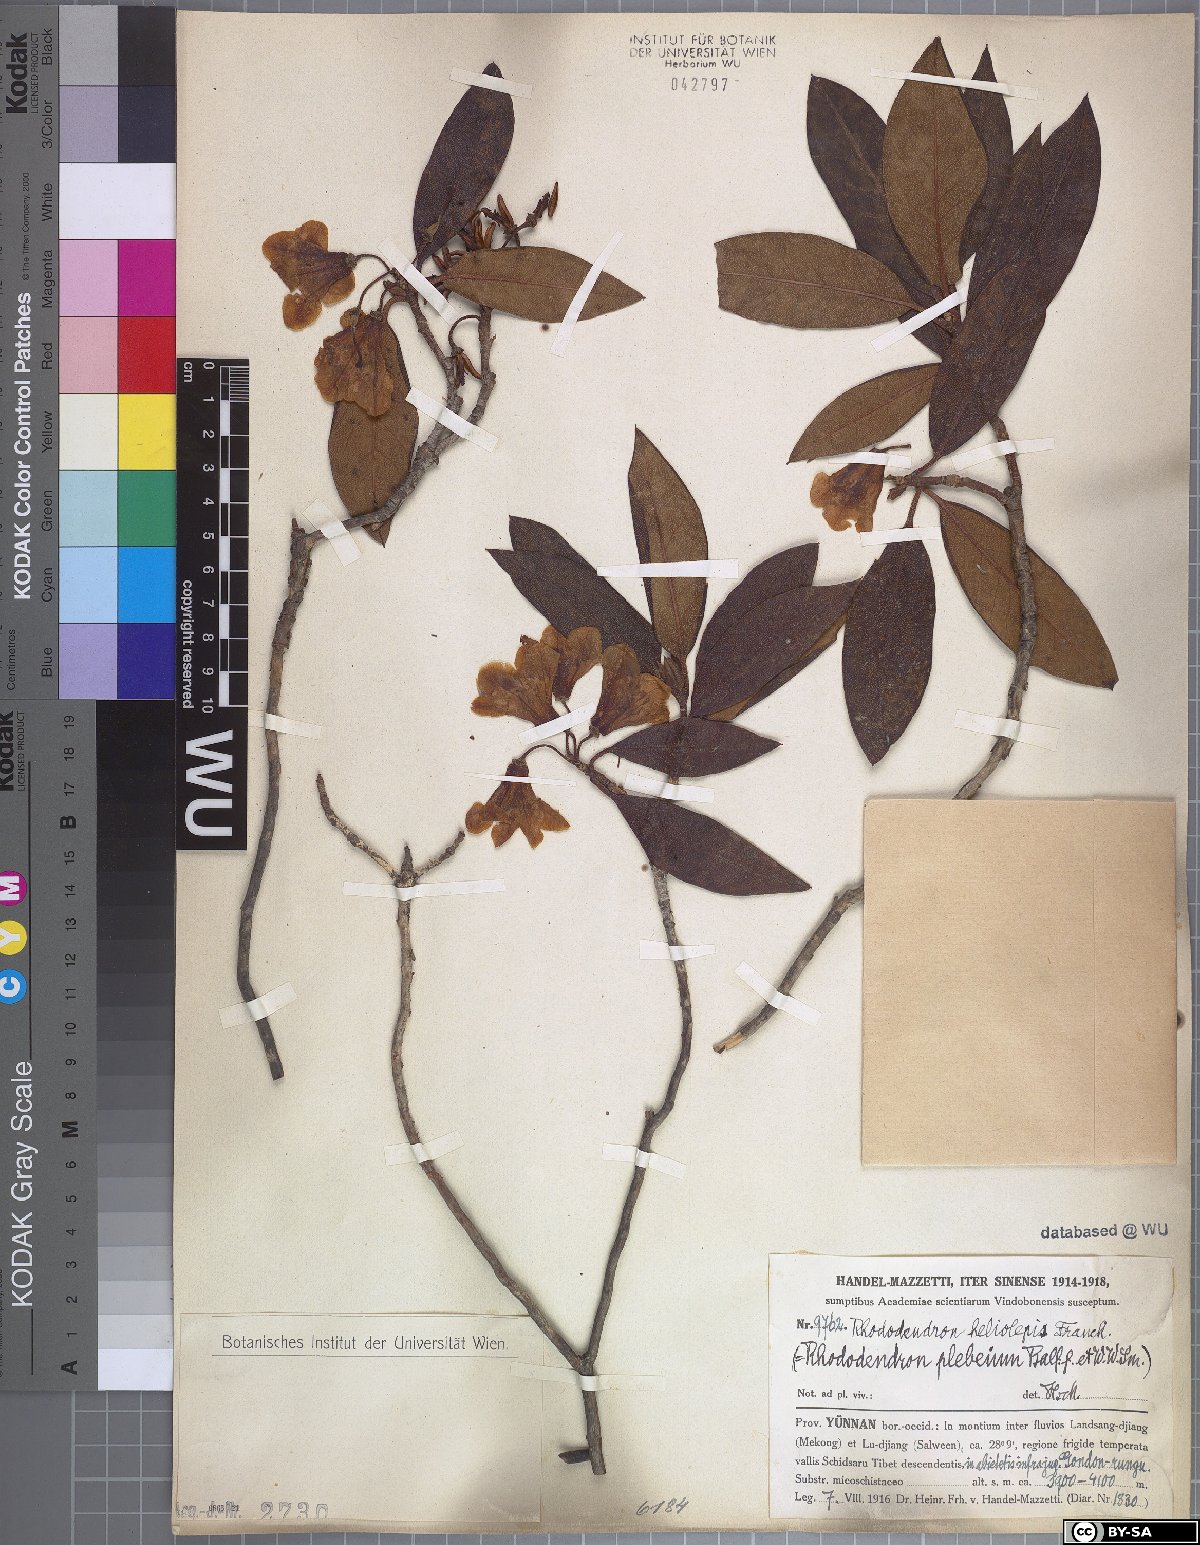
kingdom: Plantae
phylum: Tracheophyta
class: Magnoliopsida
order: Ericales
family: Ericaceae
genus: Rhododendron
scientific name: Rhododendron heliolepis
